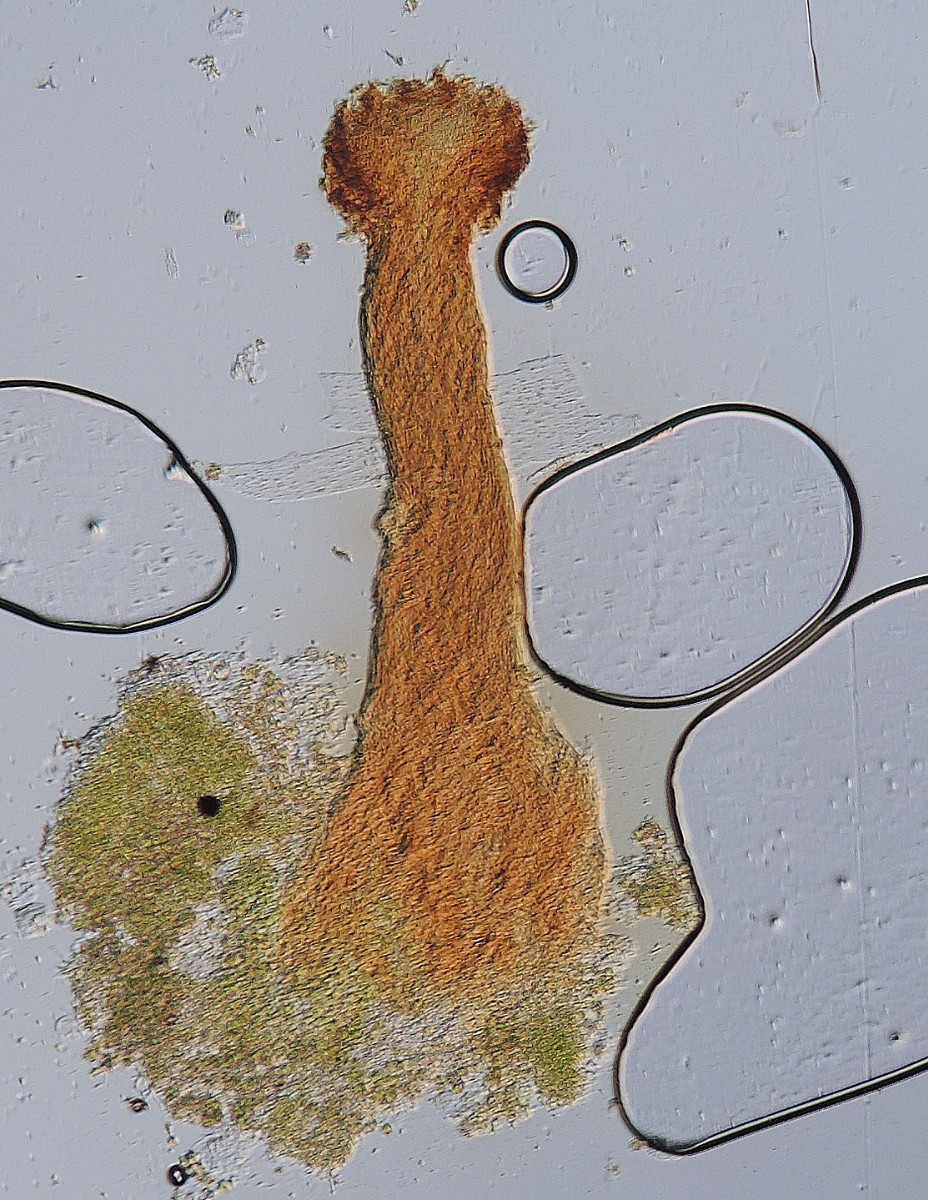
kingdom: Fungi
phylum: Ascomycota
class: Coniocybomycetes
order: Coniocybales
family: Coniocybaceae
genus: Chaenotheca
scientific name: Chaenotheca trichialis
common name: grå knappenålslav
